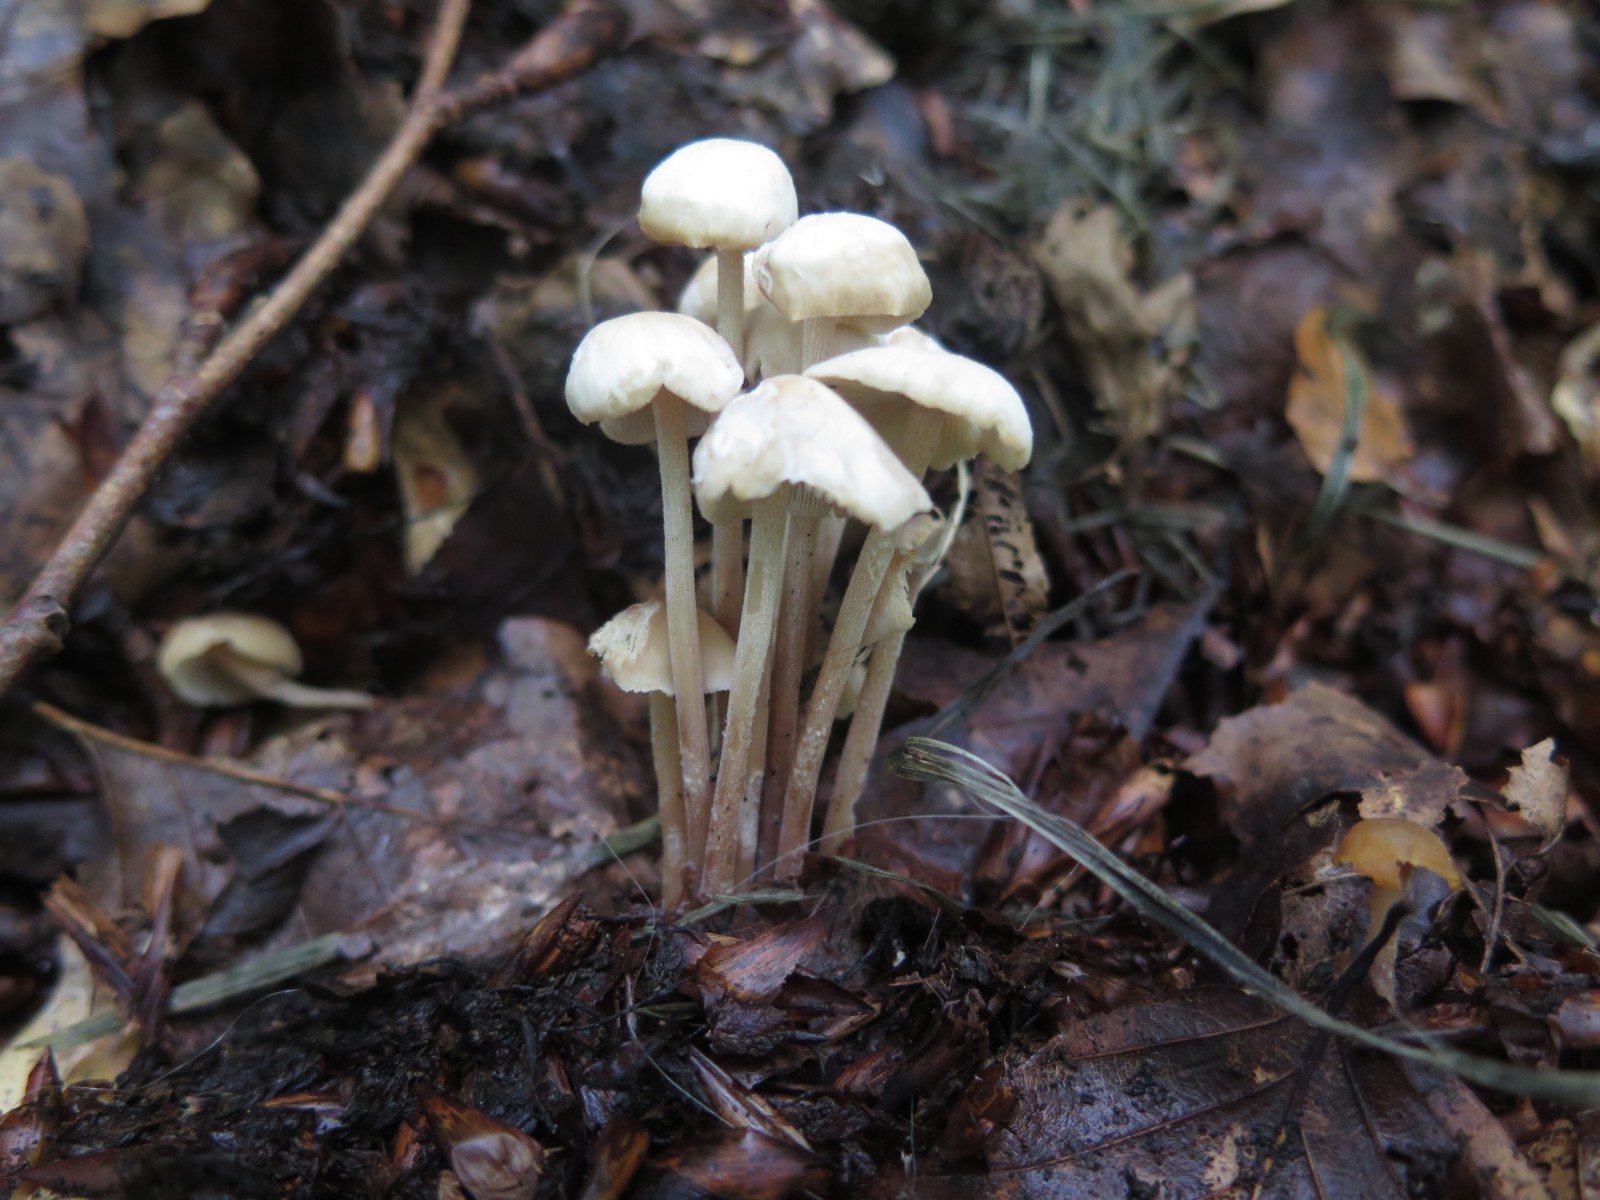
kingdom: Fungi
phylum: Basidiomycota
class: Agaricomycetes
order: Agaricales
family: Omphalotaceae
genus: Collybiopsis
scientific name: Collybiopsis confluens
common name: knippe-fladhat
